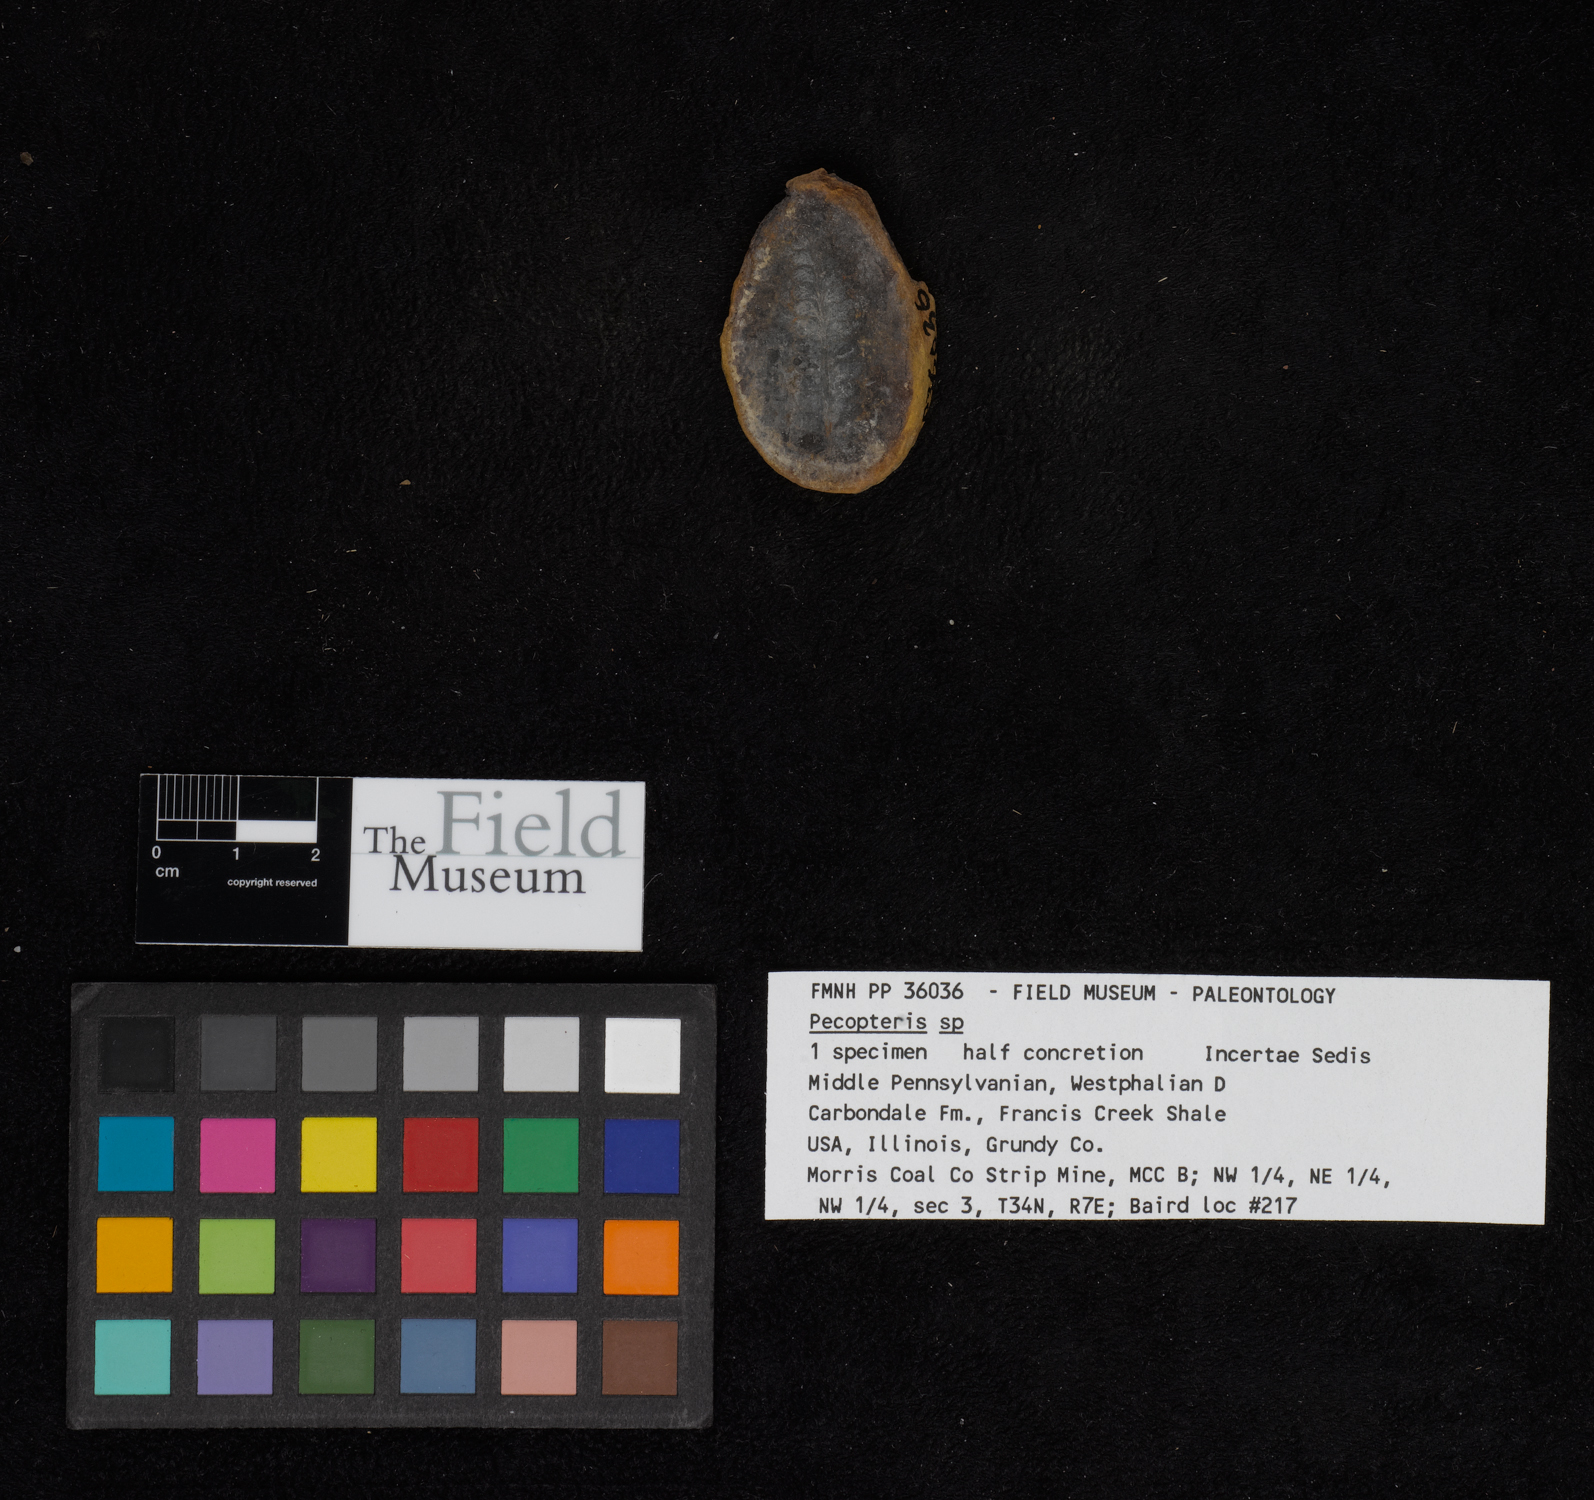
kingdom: Plantae
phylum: Tracheophyta
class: Polypodiopsida
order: Marattiales
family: Asterothecaceae
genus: Pecopteris
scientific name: Pecopteris
